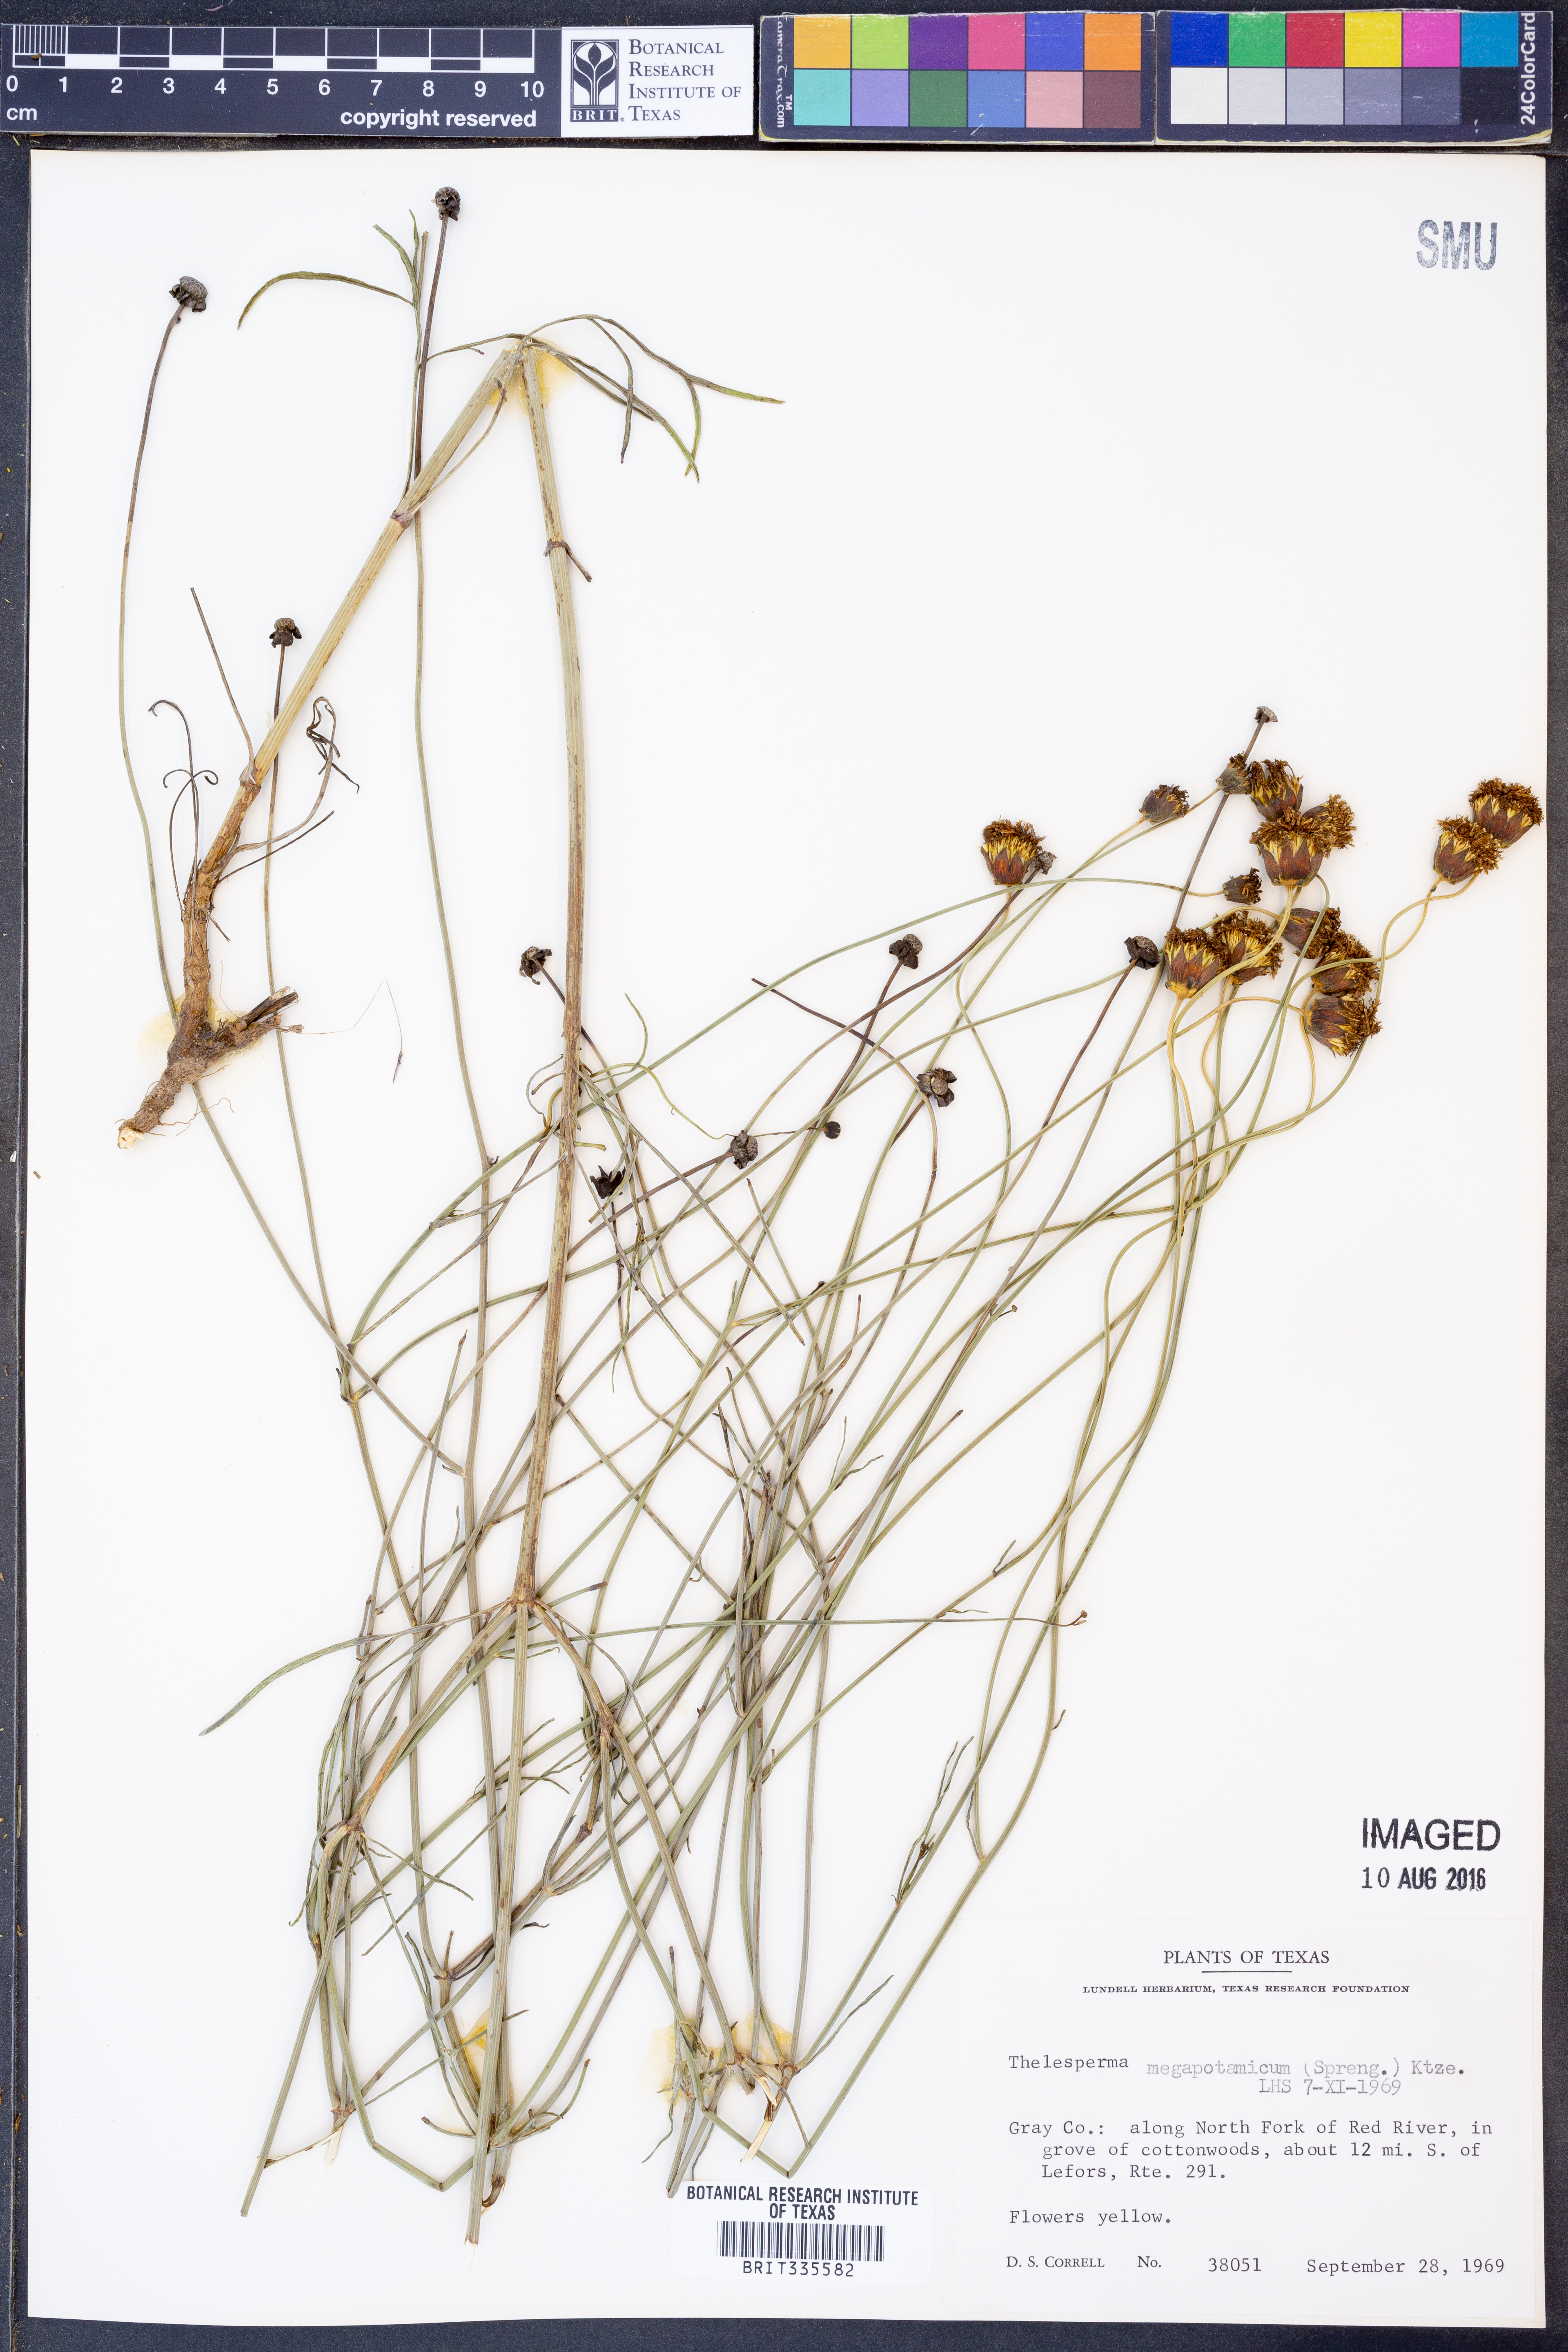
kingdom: Plantae
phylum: Tracheophyta
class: Magnoliopsida
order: Asterales
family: Asteraceae
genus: Thelesperma
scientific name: Thelesperma megapotamicum
